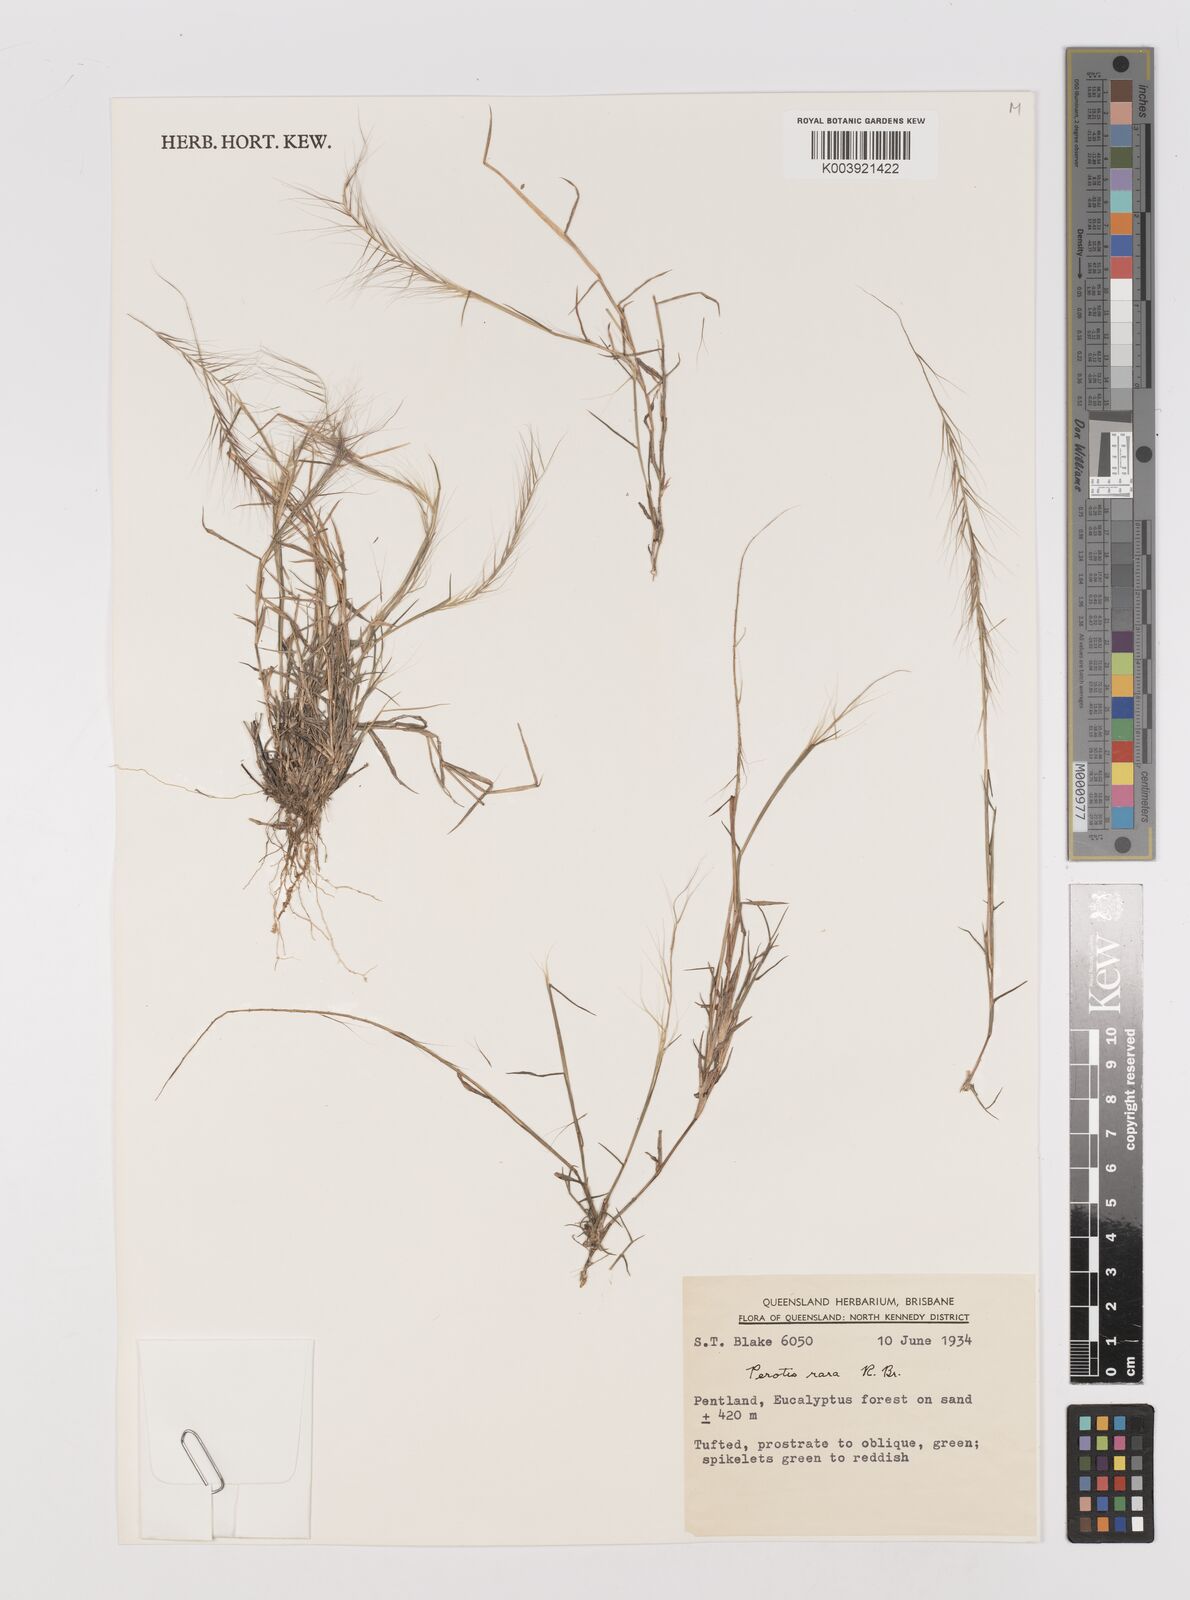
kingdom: Plantae
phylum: Tracheophyta
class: Liliopsida
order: Poales
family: Poaceae
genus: Perotis
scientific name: Perotis rara
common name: Comet grass
